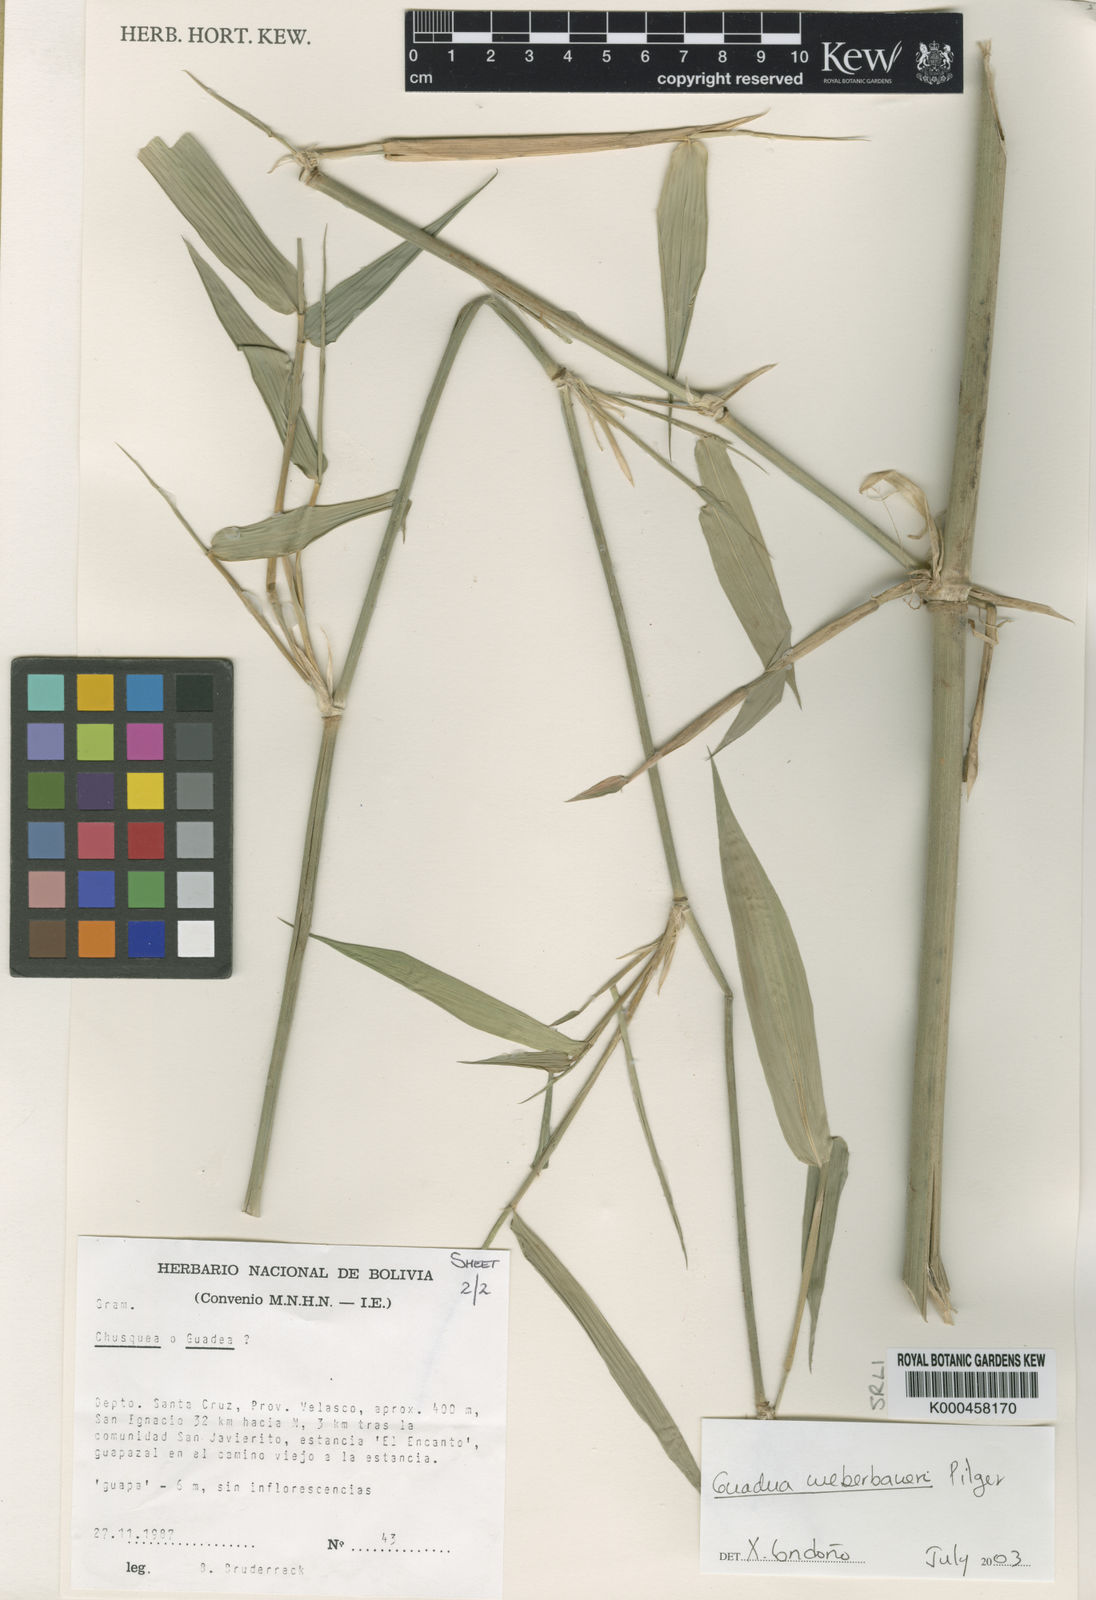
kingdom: Plantae
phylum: Tracheophyta
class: Liliopsida
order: Poales
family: Poaceae
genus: Guadua
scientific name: Guadua paniculata
